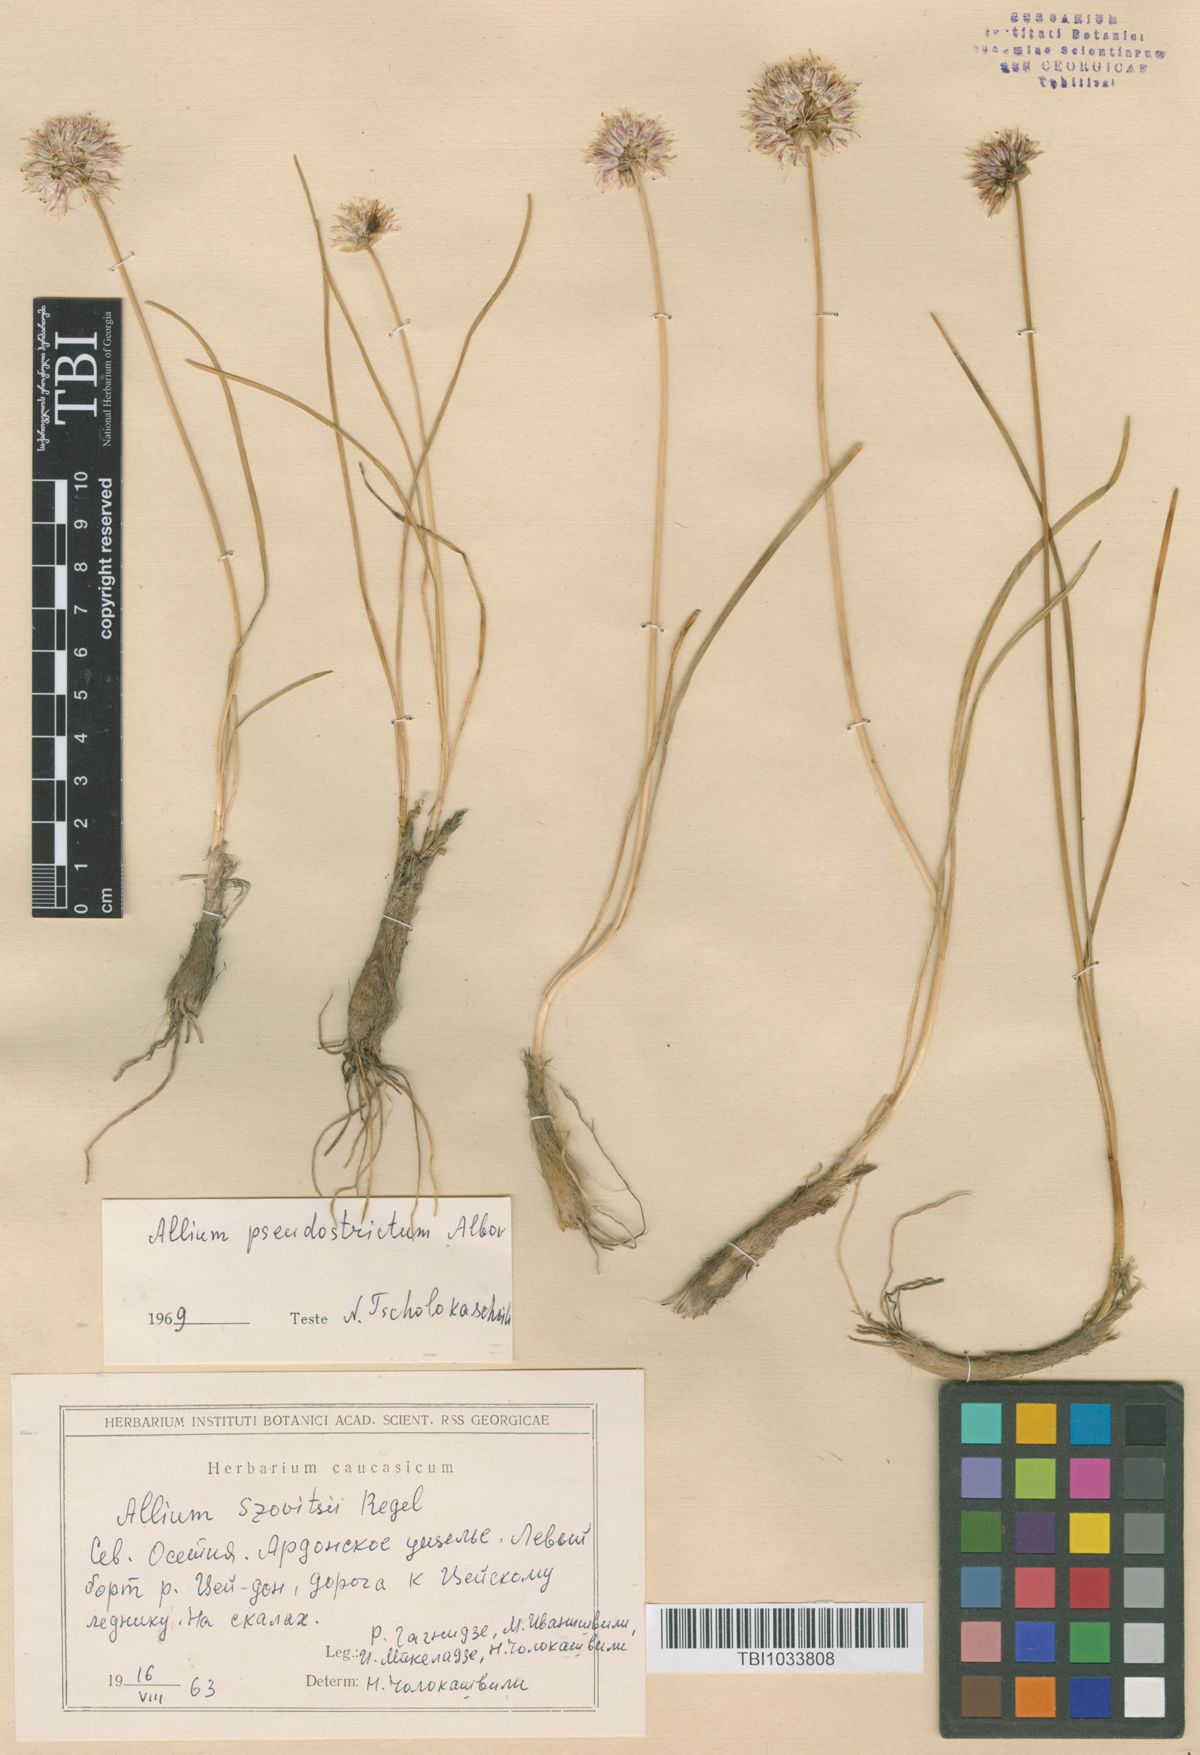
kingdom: Plantae
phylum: Tracheophyta
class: Liliopsida
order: Asparagales
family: Amaryllidaceae
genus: Allium
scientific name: Allium pseudostrictum
